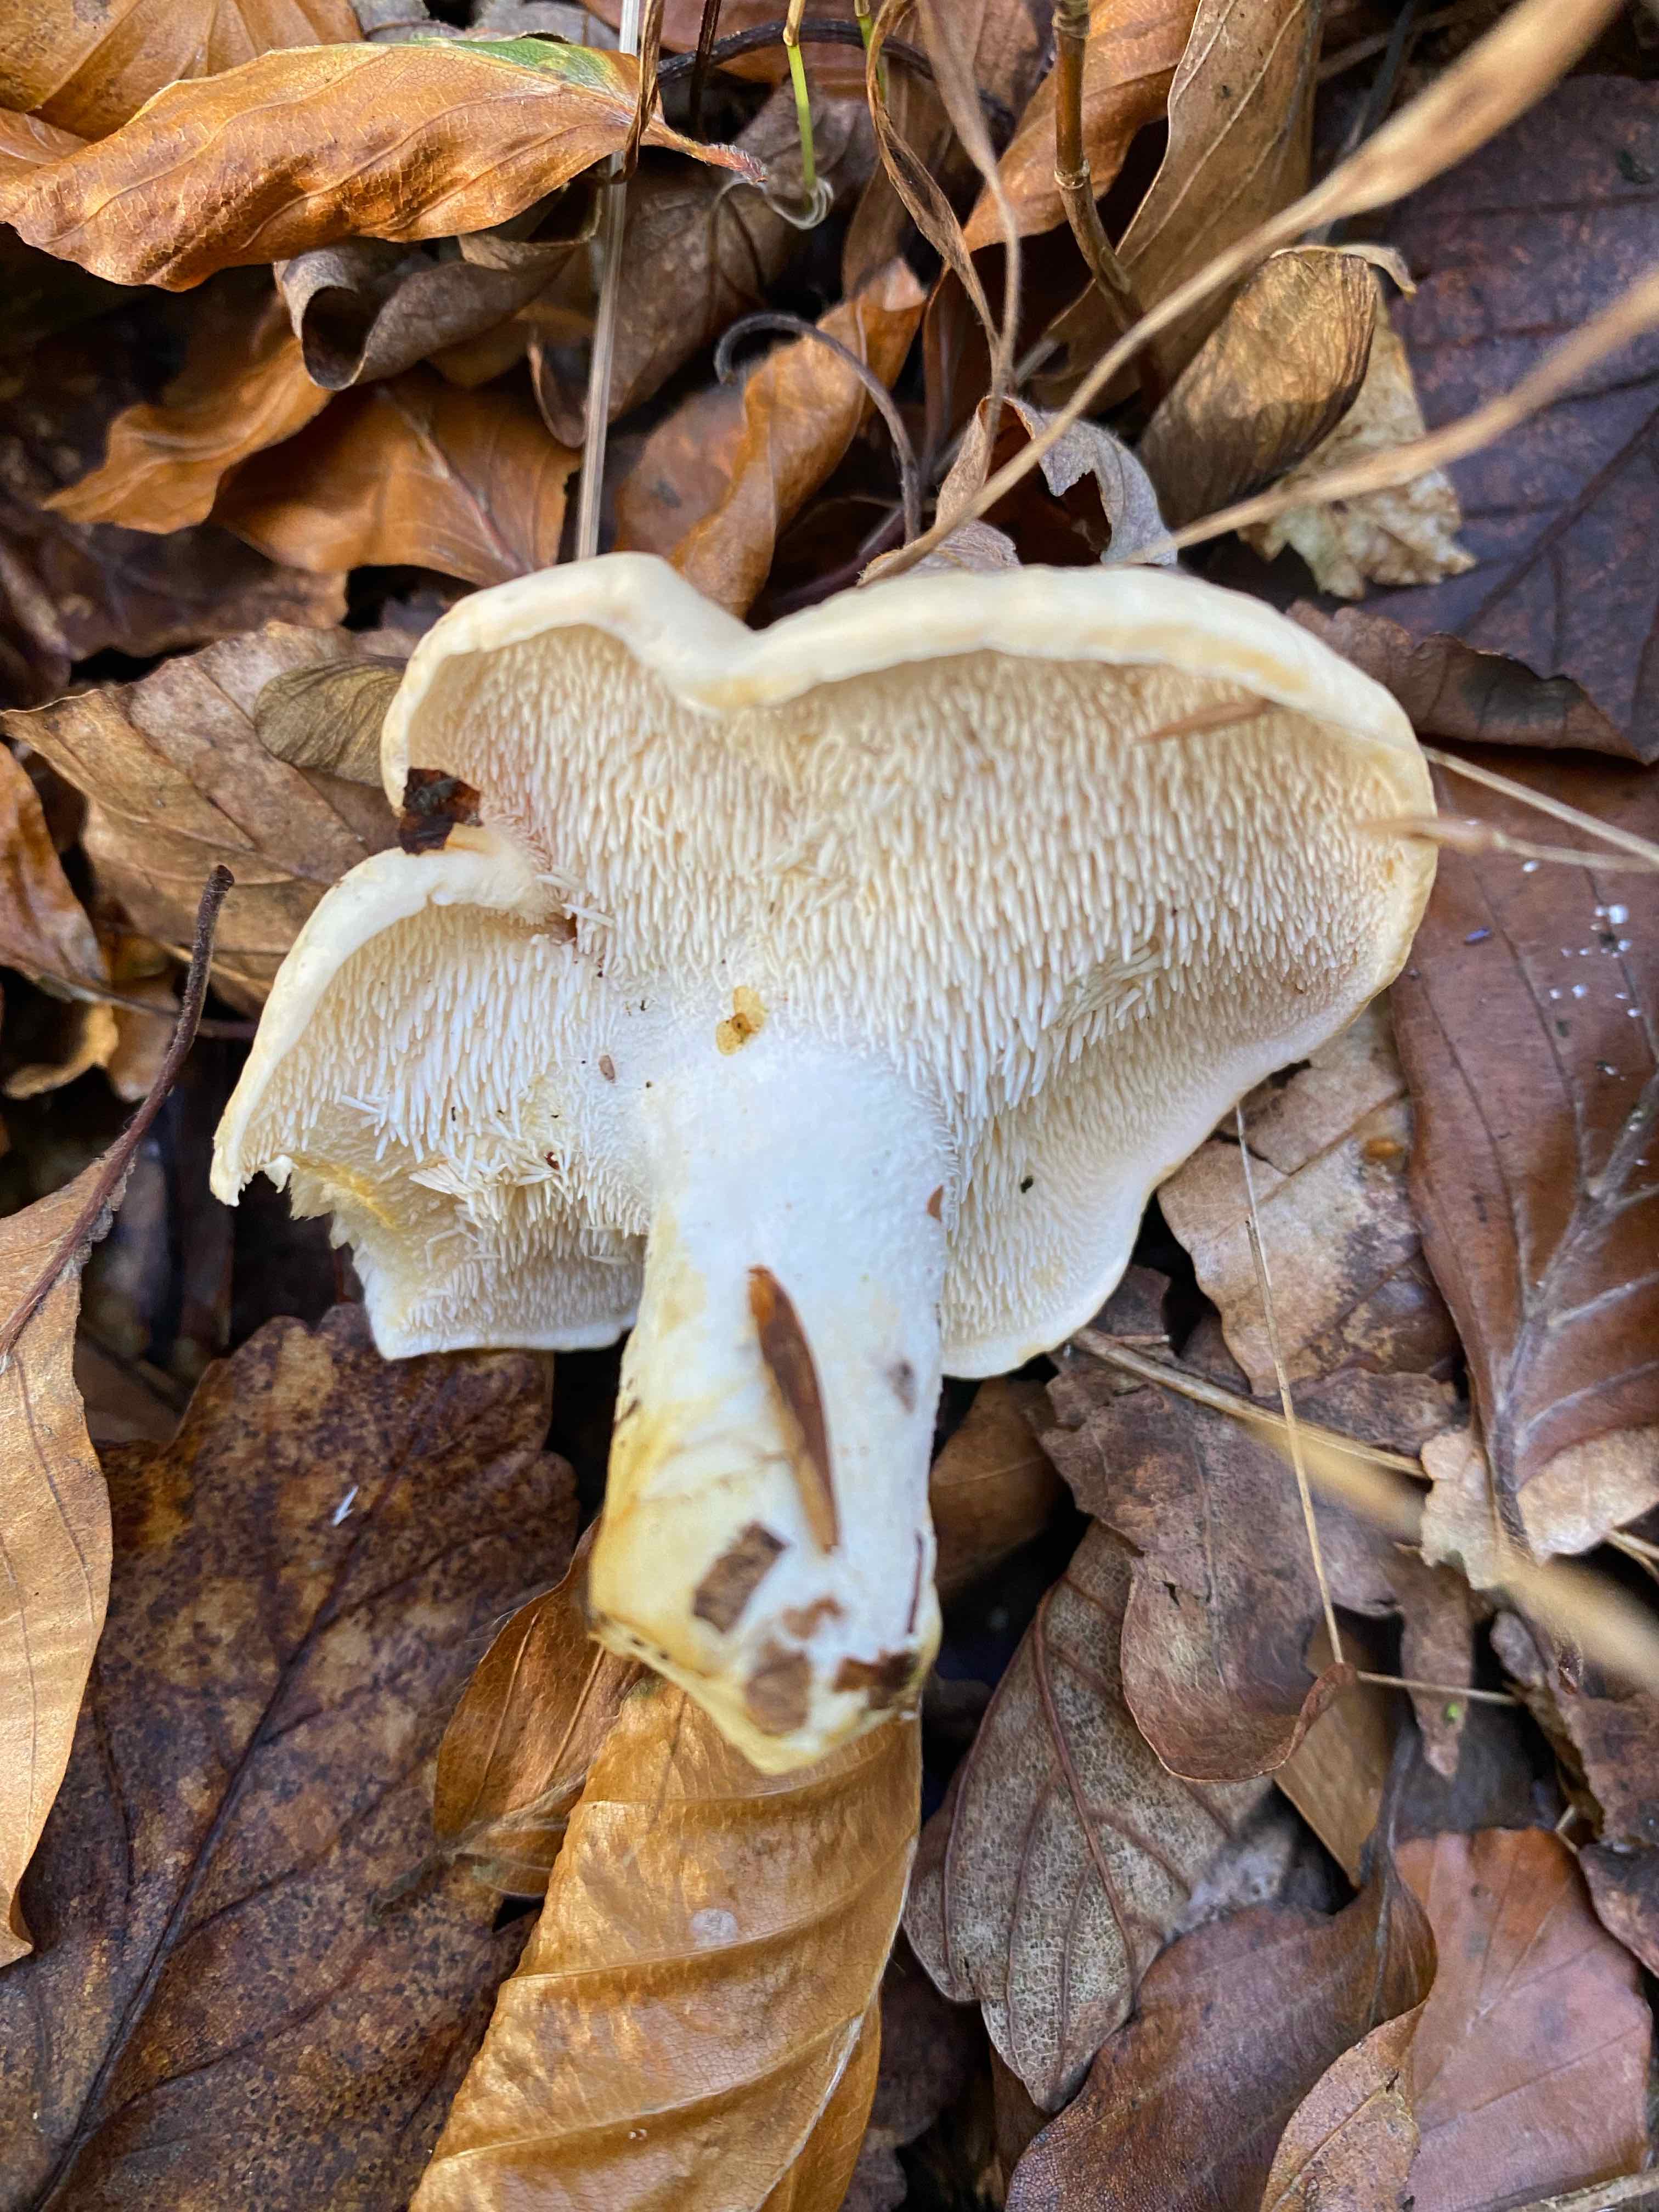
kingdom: Fungi
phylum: Basidiomycota
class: Agaricomycetes
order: Cantharellales
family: Hydnaceae
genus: Hydnum
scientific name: Hydnum
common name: pigsvamp
